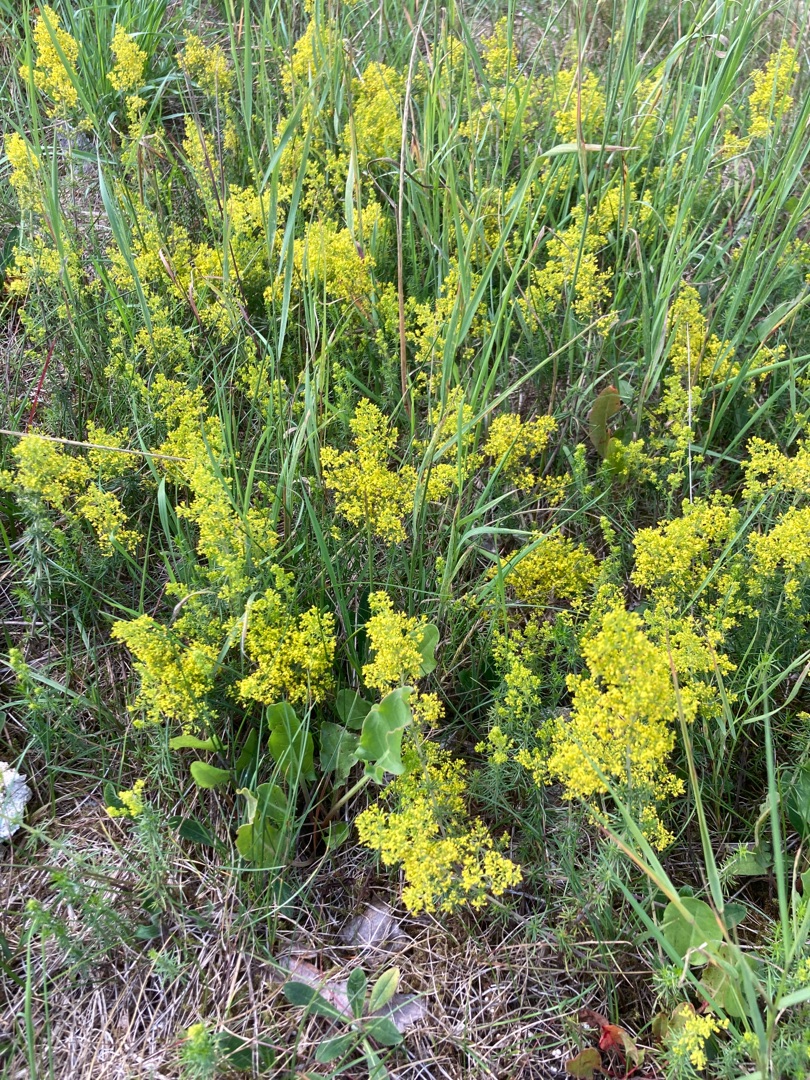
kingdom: Plantae
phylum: Tracheophyta
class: Magnoliopsida
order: Gentianales
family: Rubiaceae
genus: Galium
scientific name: Galium verum
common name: Gul snerre
